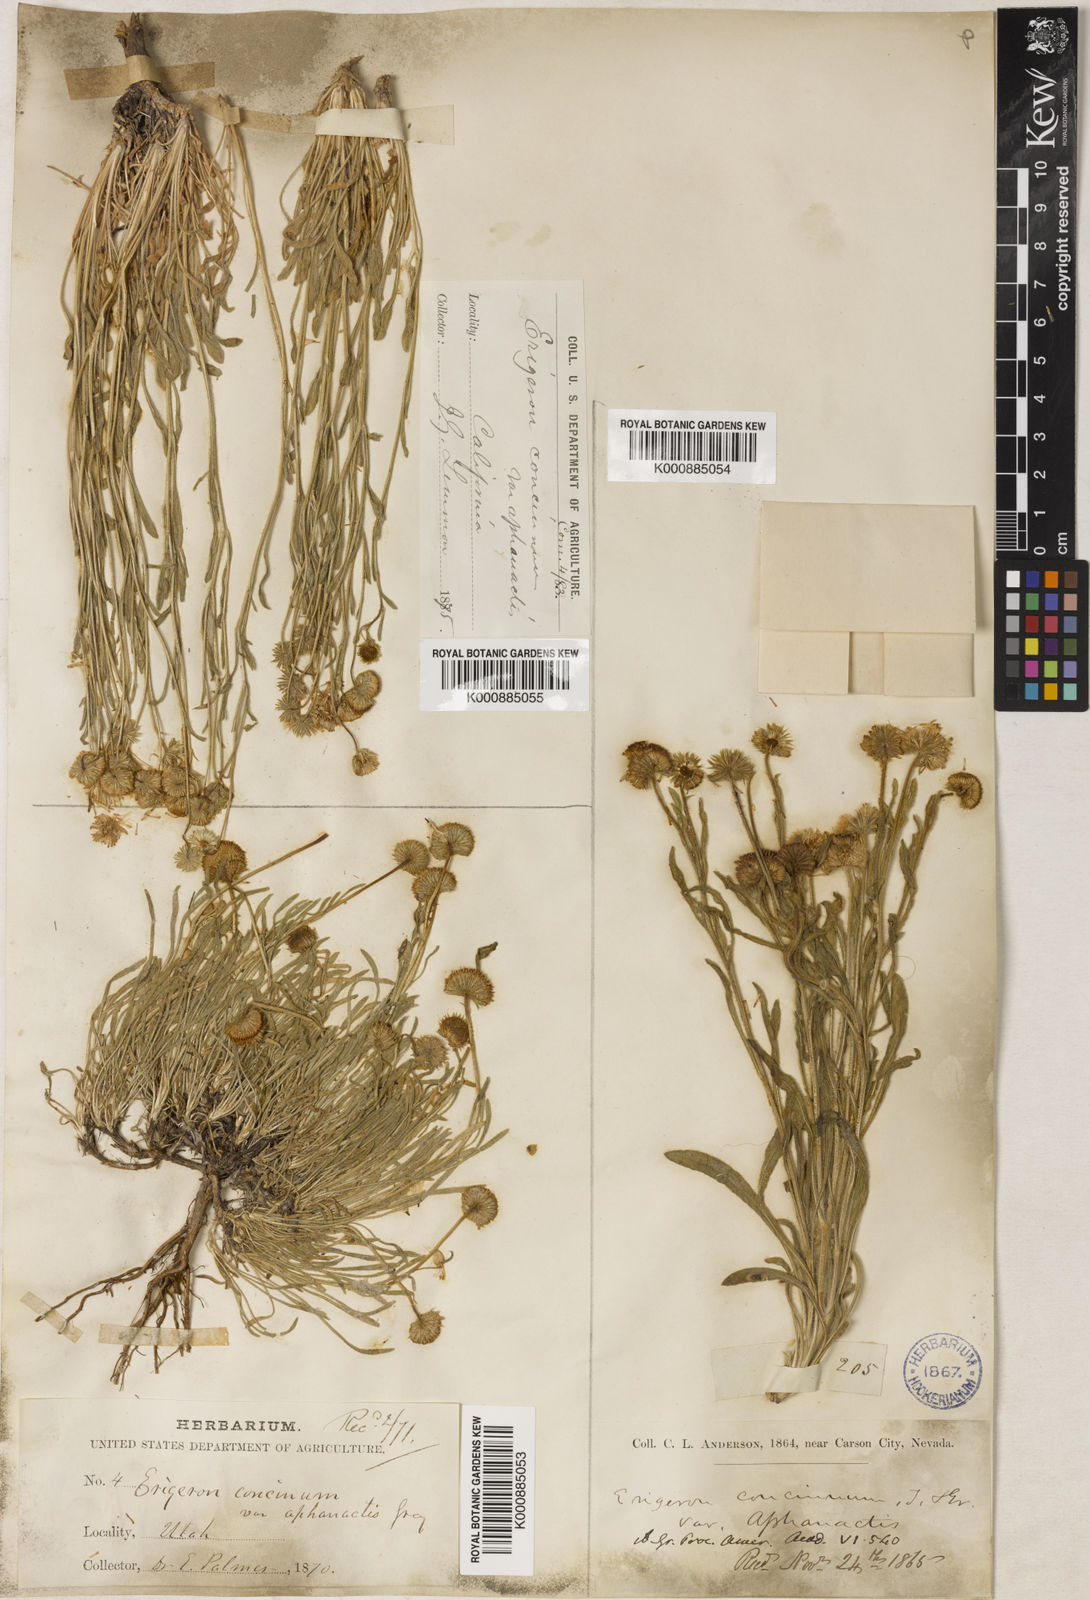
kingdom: Plantae
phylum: Tracheophyta
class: Magnoliopsida
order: Asterales
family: Asteraceae
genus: Erigeron
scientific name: Erigeron aphanactis
